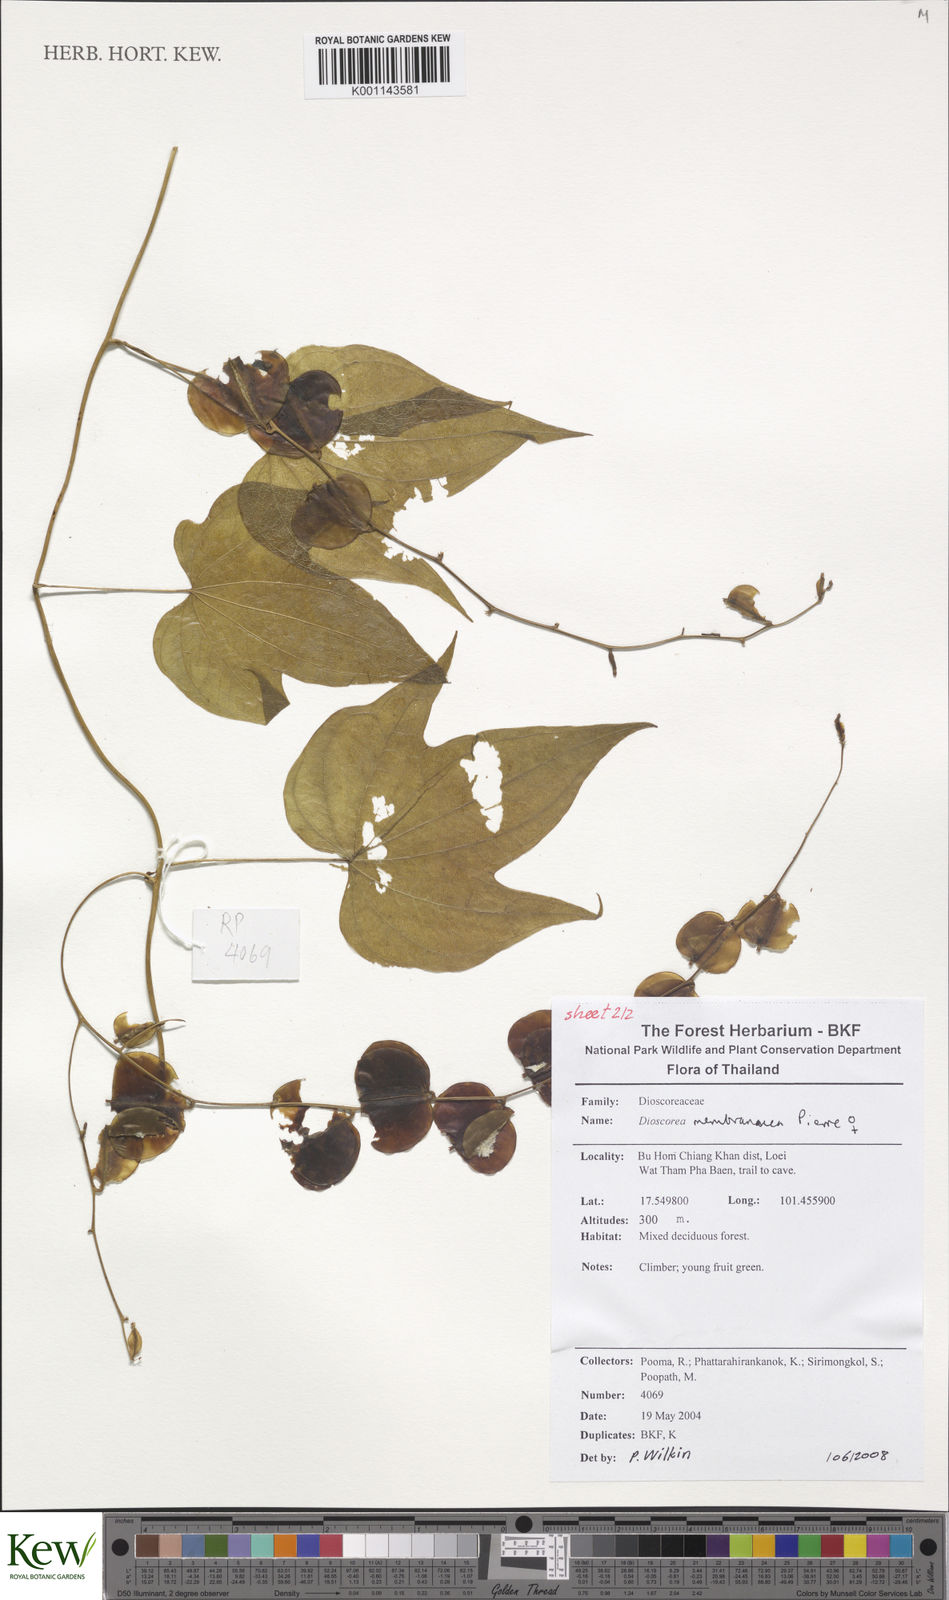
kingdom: Plantae
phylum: Tracheophyta
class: Liliopsida
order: Dioscoreales
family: Dioscoreaceae
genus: Dioscorea
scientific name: Dioscorea membranacea
